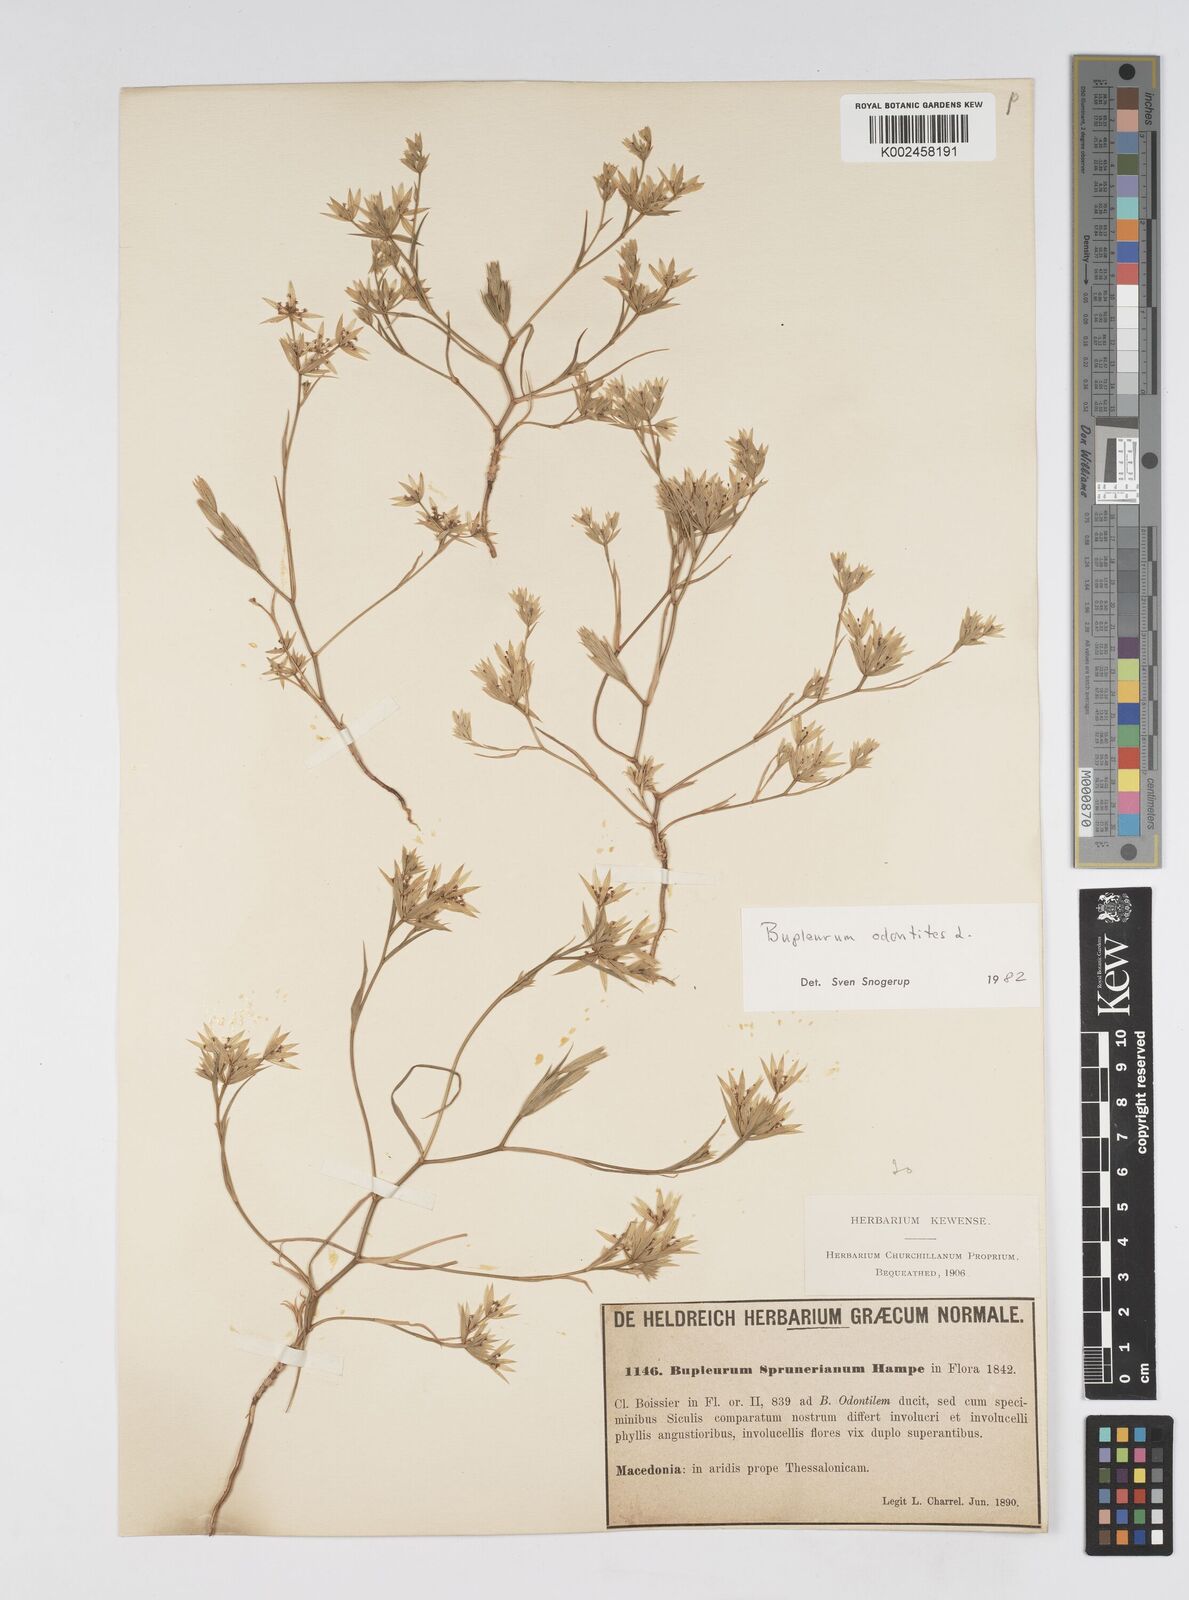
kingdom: Plantae
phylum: Tracheophyta
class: Magnoliopsida
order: Apiales
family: Apiaceae
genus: Bupleurum
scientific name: Bupleurum odontites
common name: Narrowleaf thorow wax
